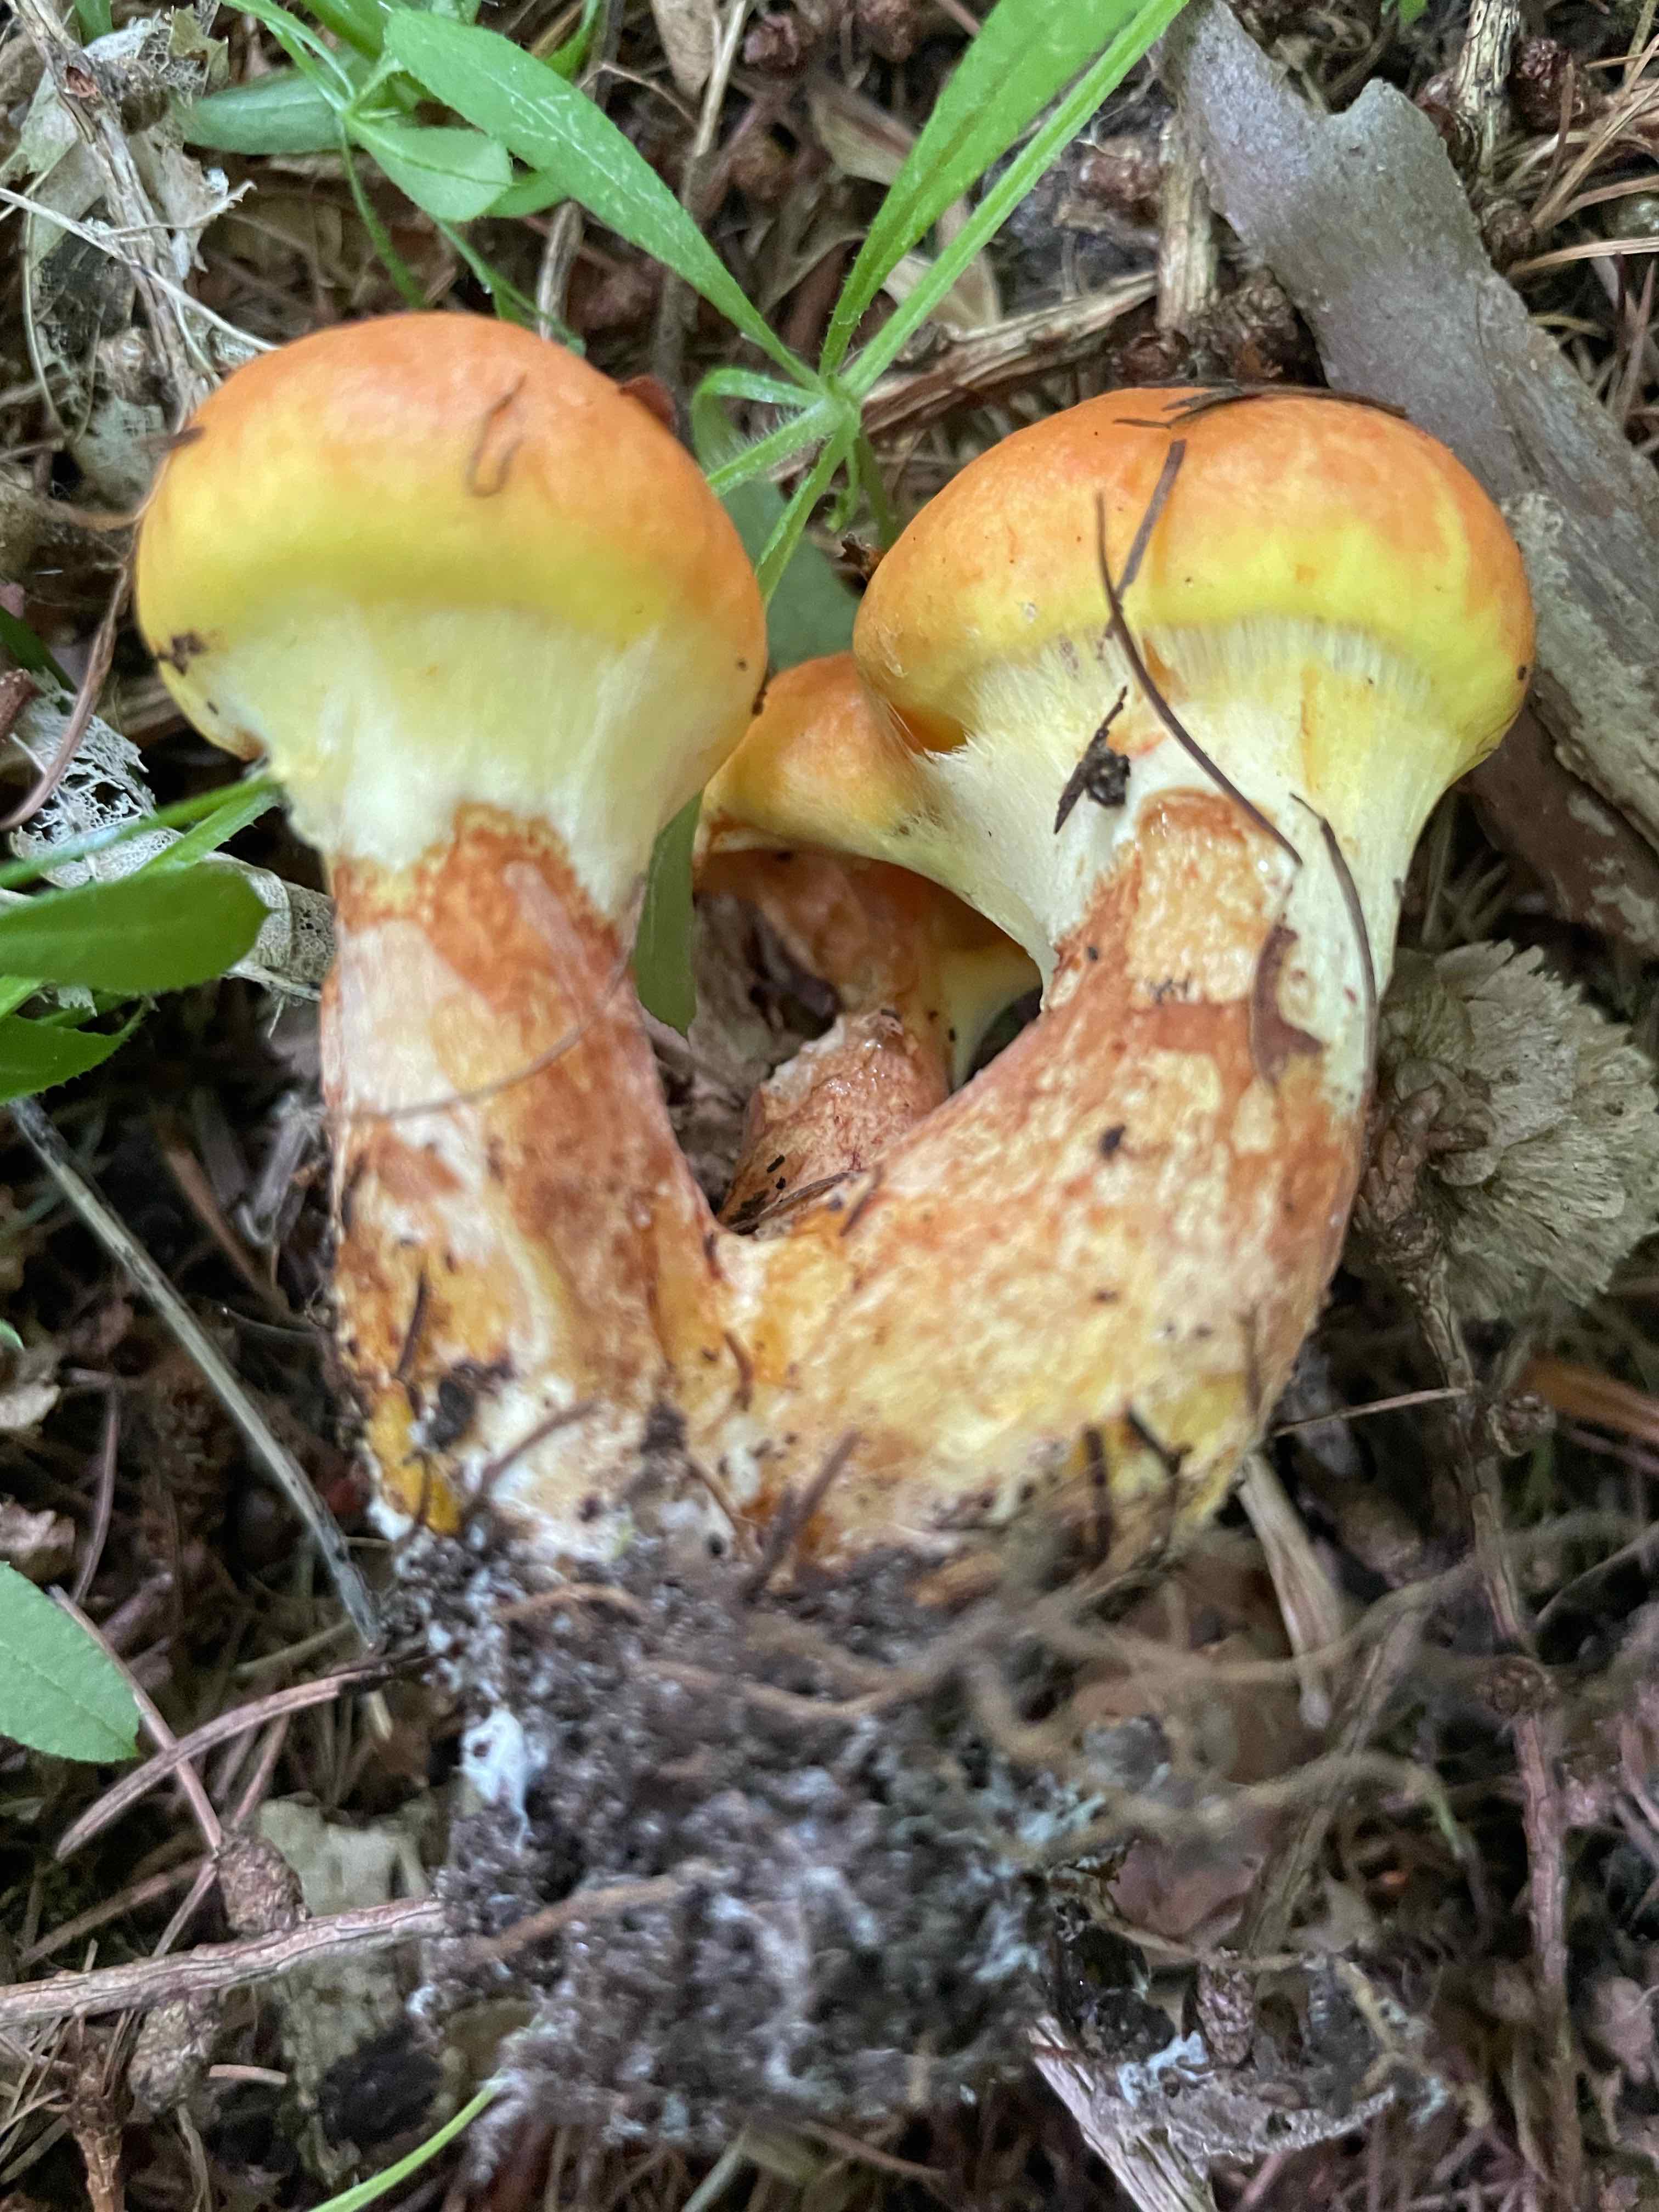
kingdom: Fungi
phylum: Basidiomycota
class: Agaricomycetes
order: Boletales
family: Suillaceae
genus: Suillus
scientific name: Suillus grevillei
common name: lærke-slimrørhat
